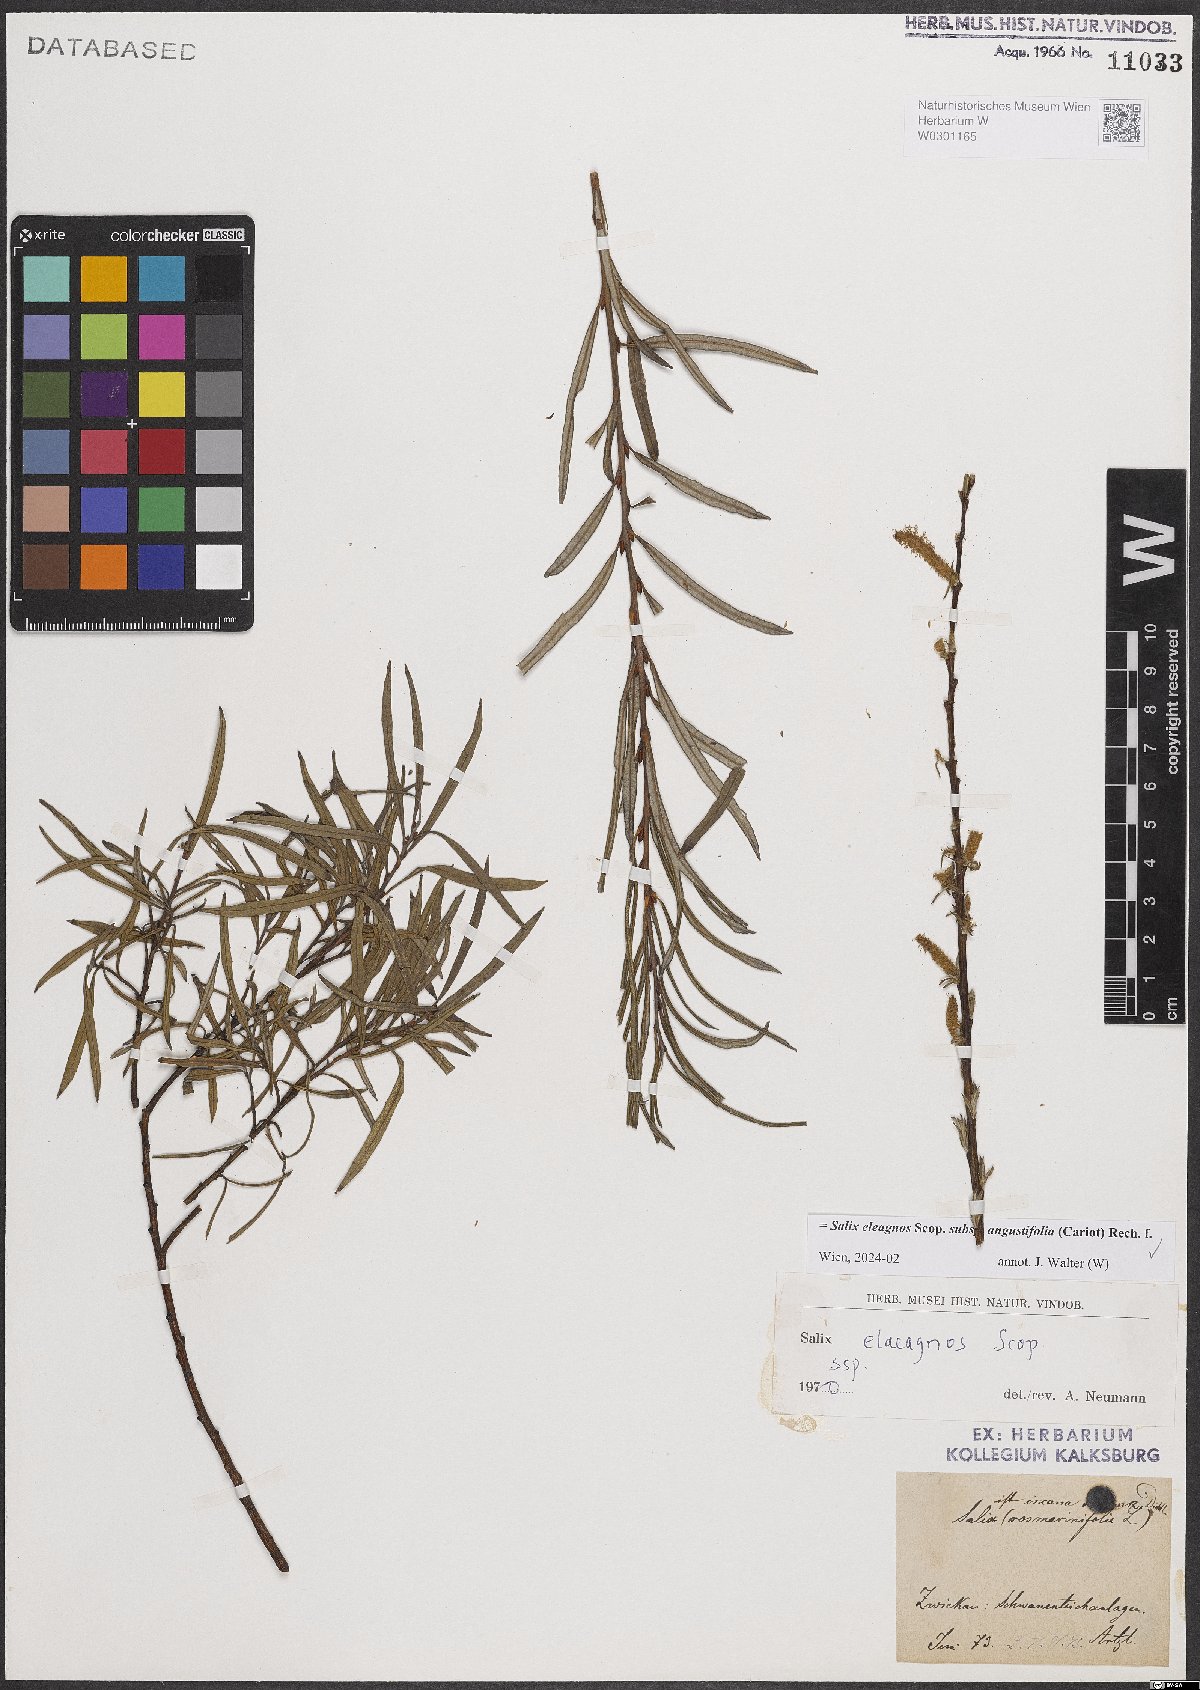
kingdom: Plantae
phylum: Tracheophyta
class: Magnoliopsida
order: Malpighiales
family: Salicaceae
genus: Salix
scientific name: Salix eleagnos
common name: Elaeagnus willow
